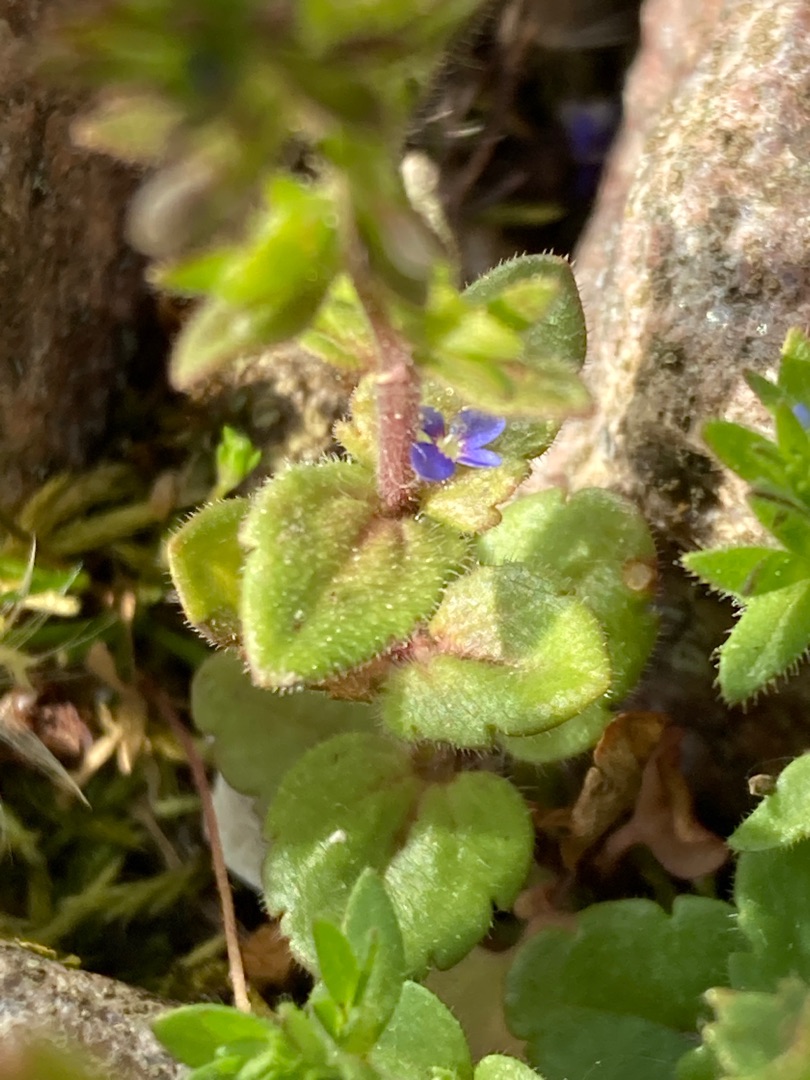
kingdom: Plantae
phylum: Tracheophyta
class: Magnoliopsida
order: Lamiales
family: Plantaginaceae
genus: Veronica
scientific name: Veronica arvensis
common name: Mark-ærenpris
